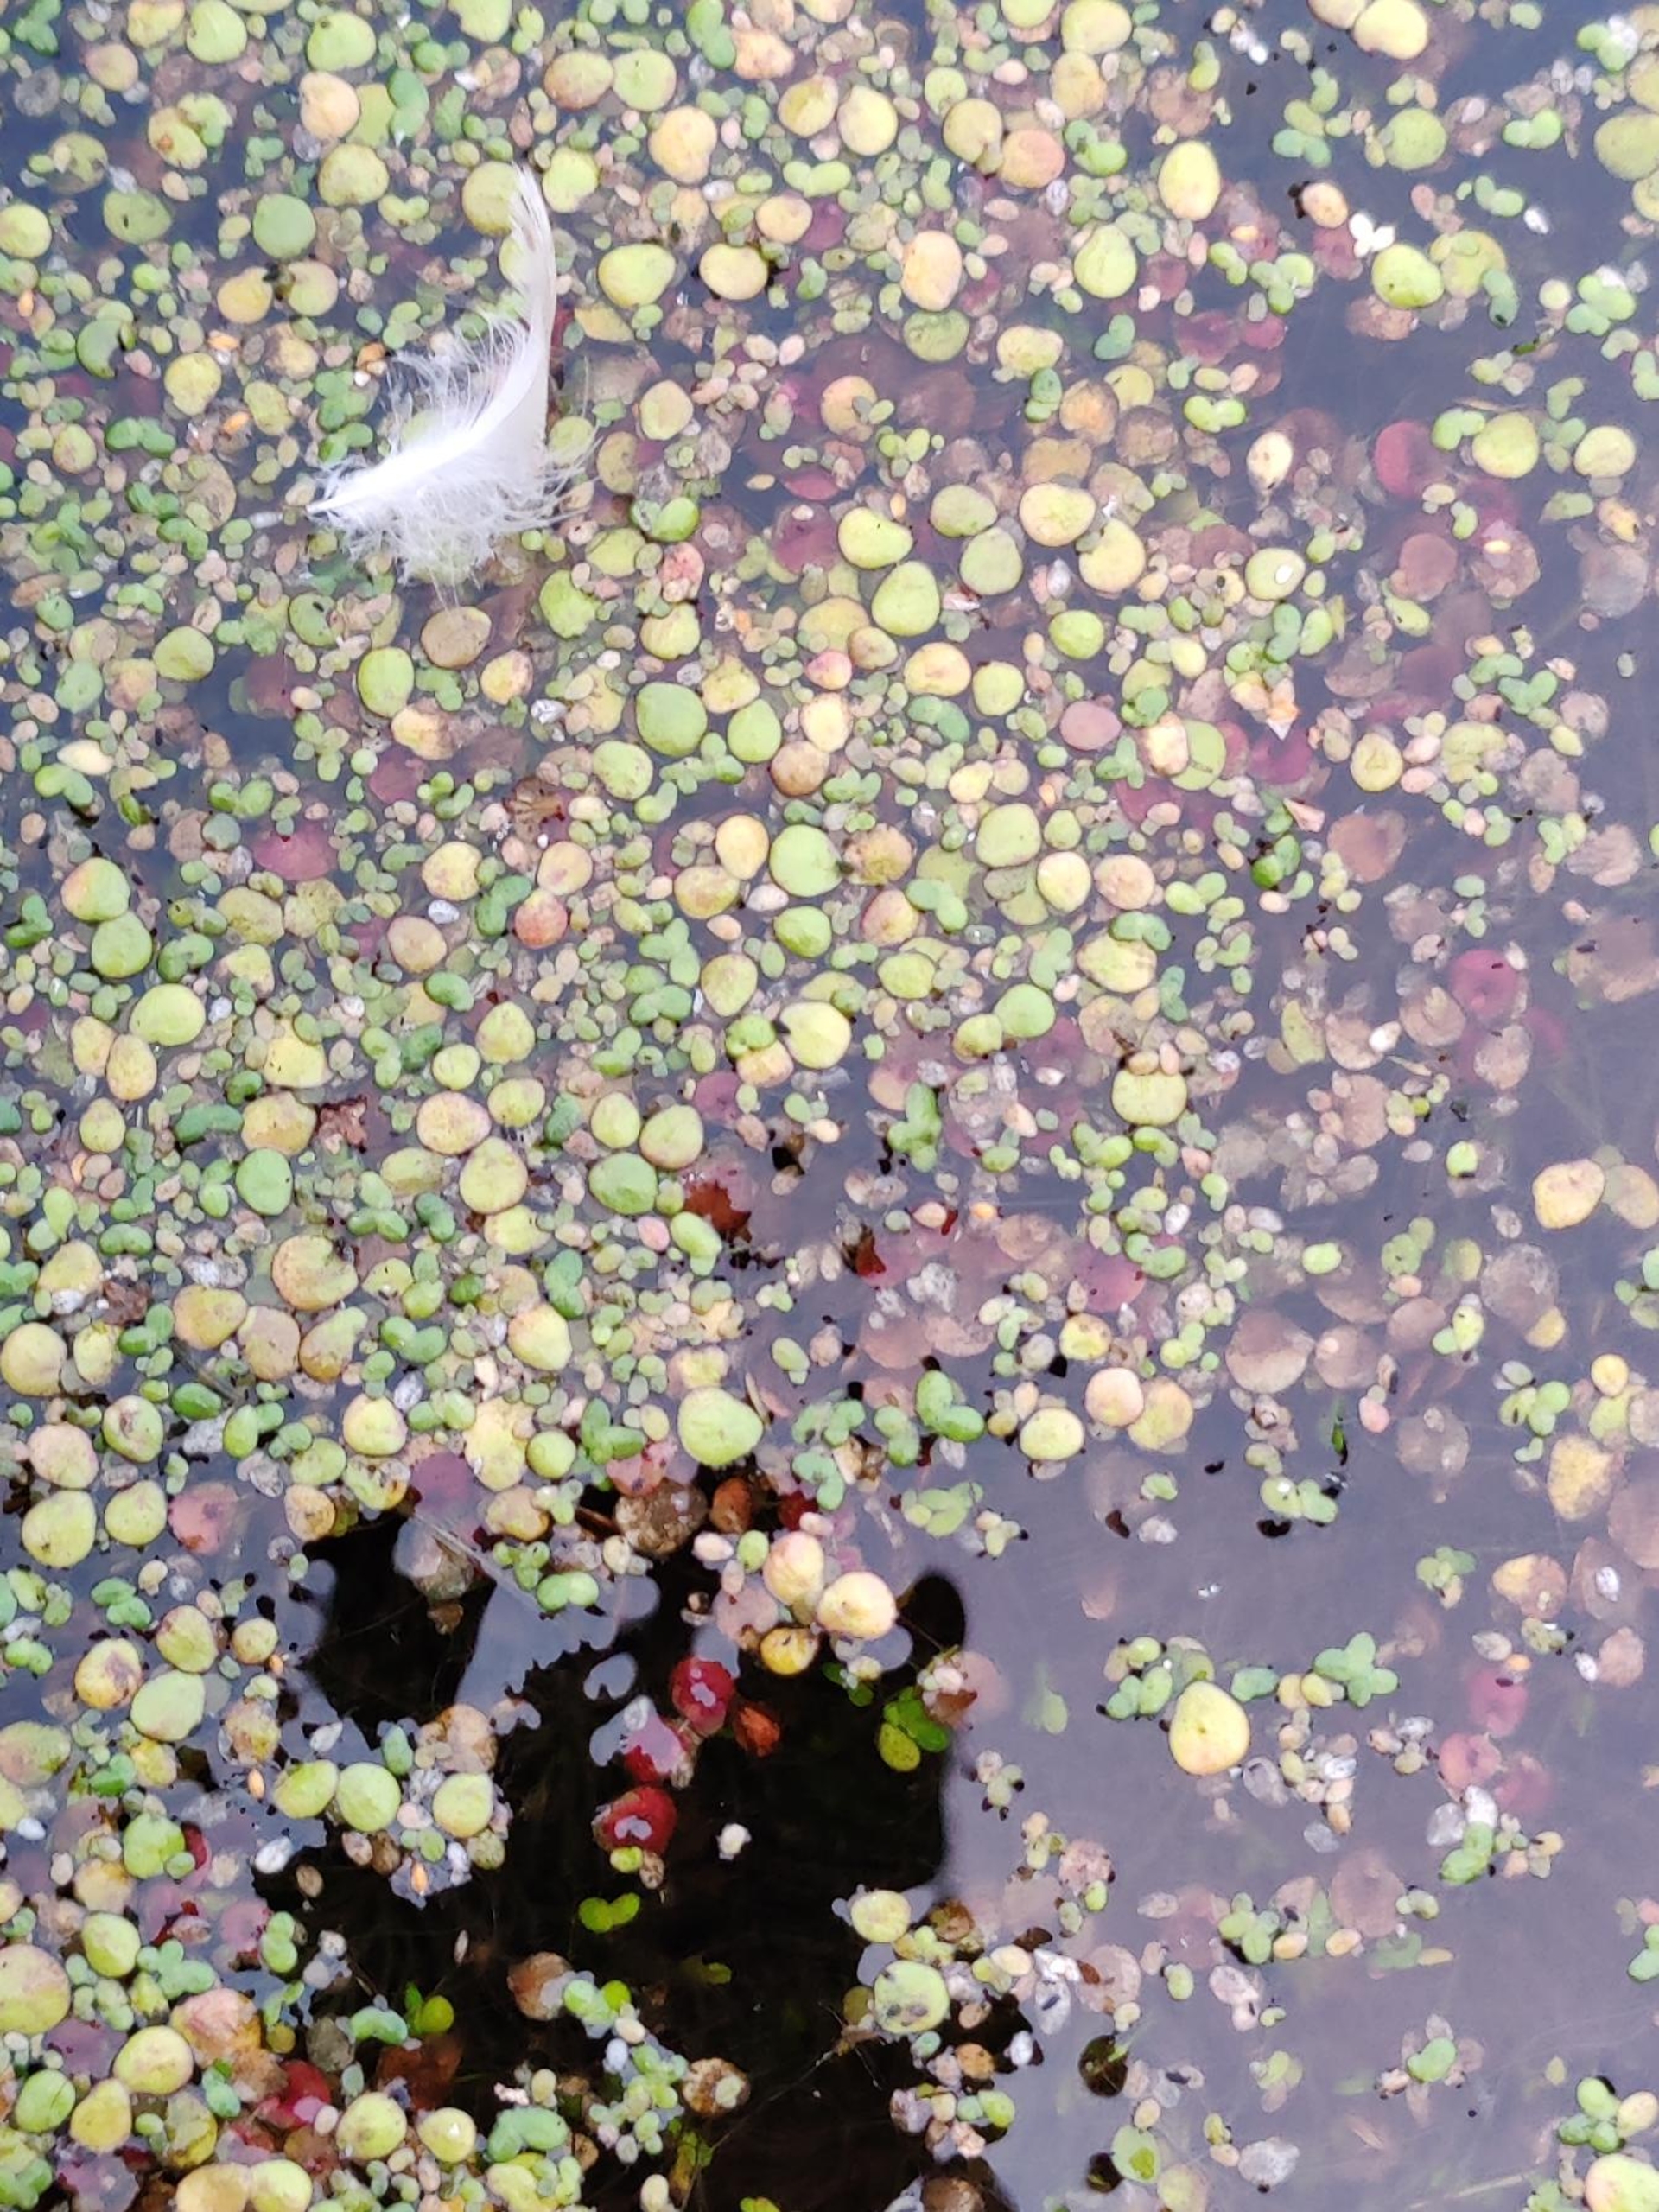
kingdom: Plantae
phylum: Tracheophyta
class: Liliopsida
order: Alismatales
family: Araceae
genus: Spirodela
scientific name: Spirodela polyrhiza
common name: Stor andemad
